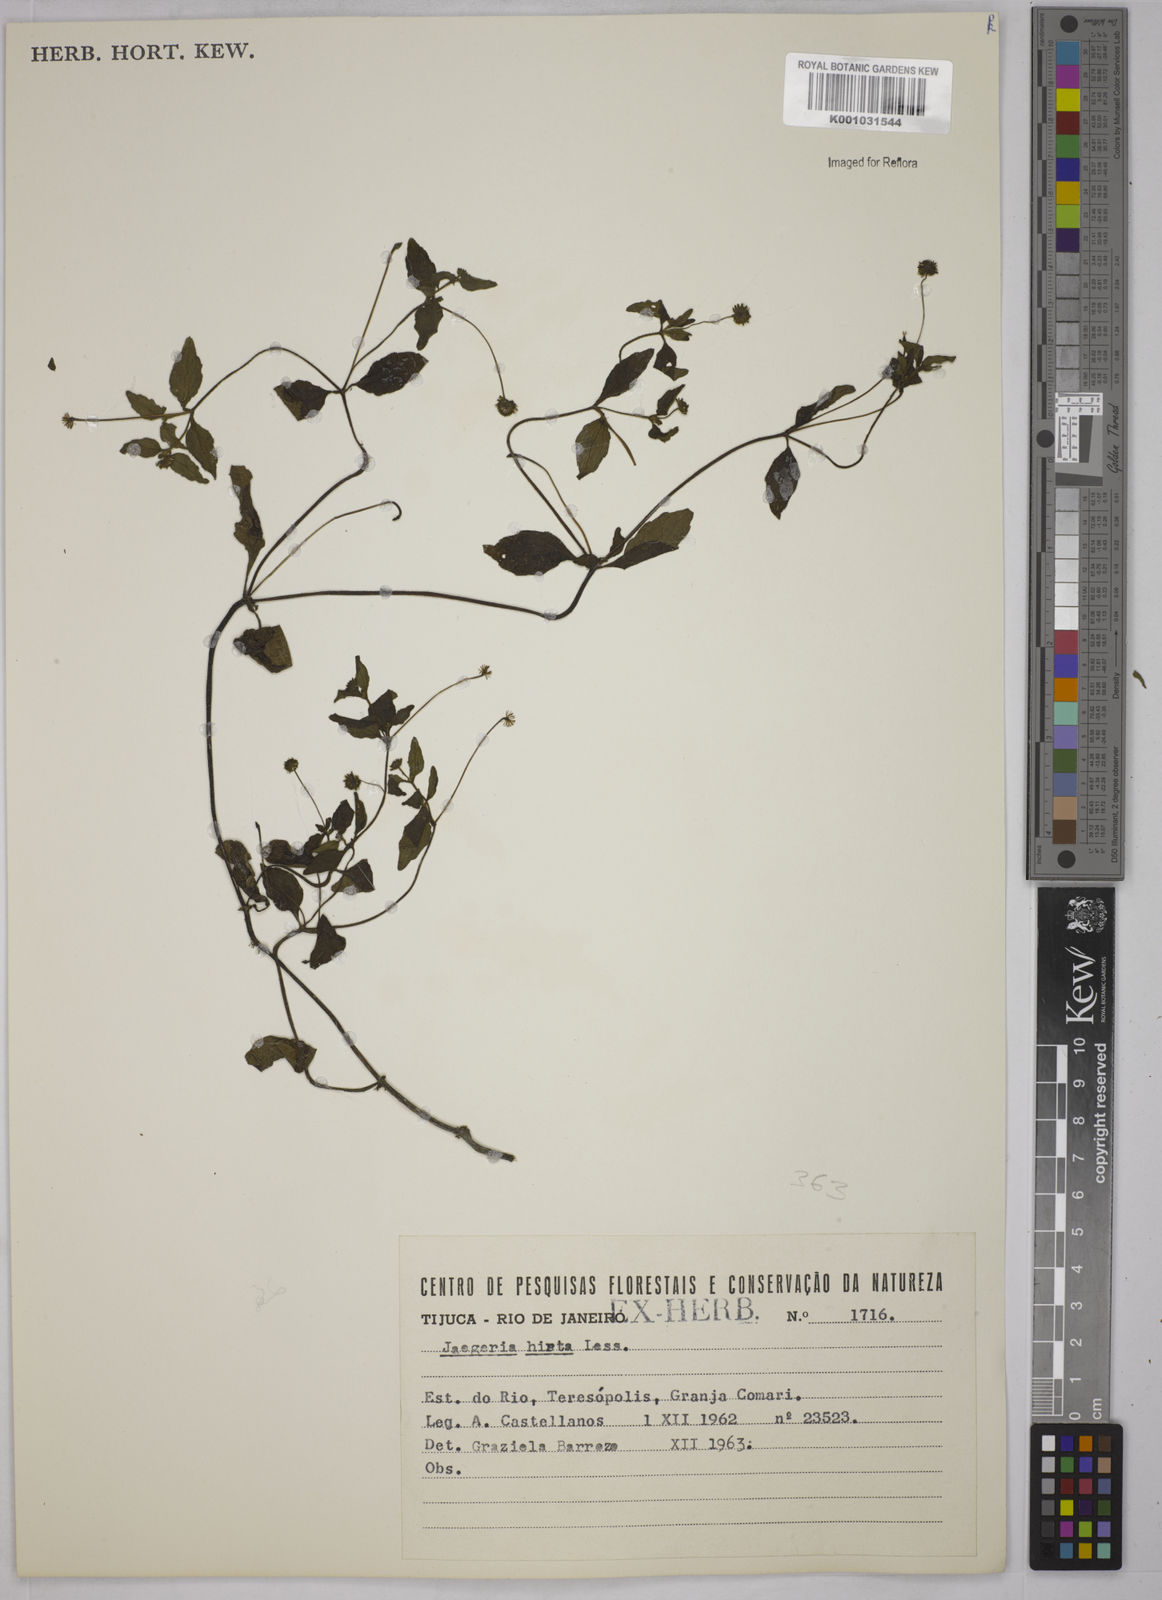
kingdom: Plantae
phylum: Tracheophyta
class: Magnoliopsida
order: Asterales
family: Asteraceae
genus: Jaegeria
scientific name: Jaegeria hirta
